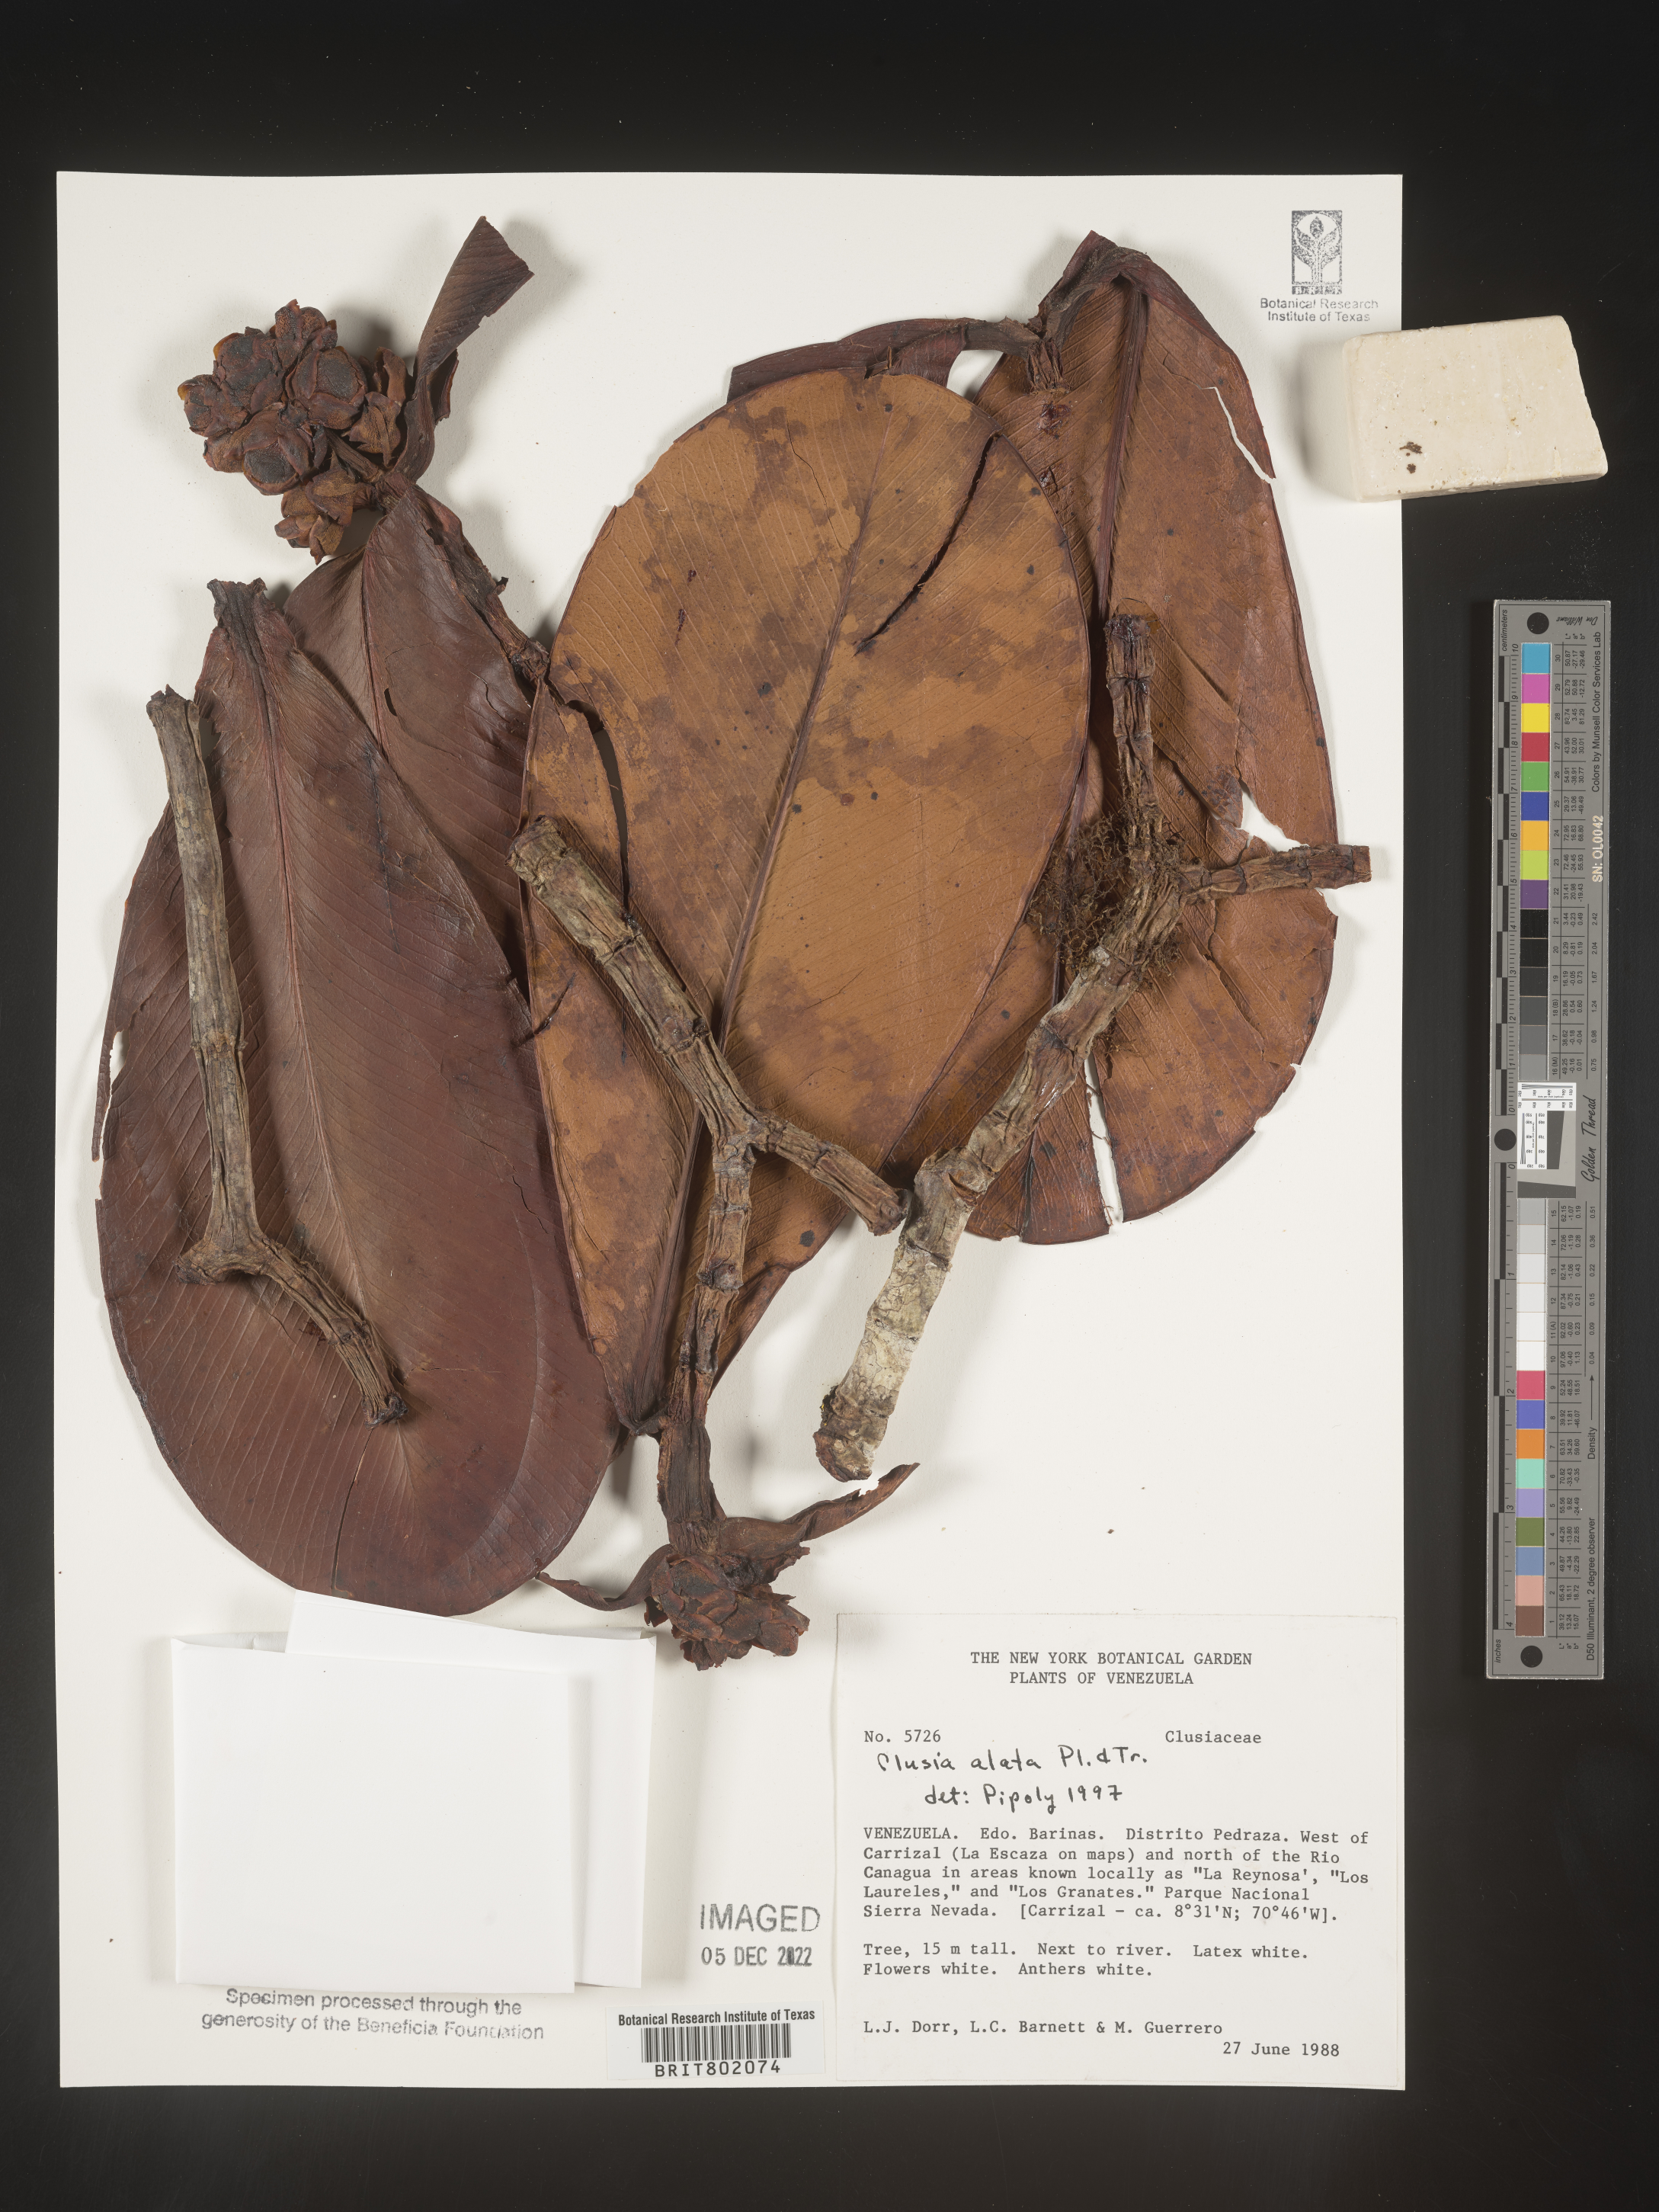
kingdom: Plantae
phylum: Tracheophyta
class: Magnoliopsida
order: Malpighiales
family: Clusiaceae
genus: Clusia
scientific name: Clusia alata
